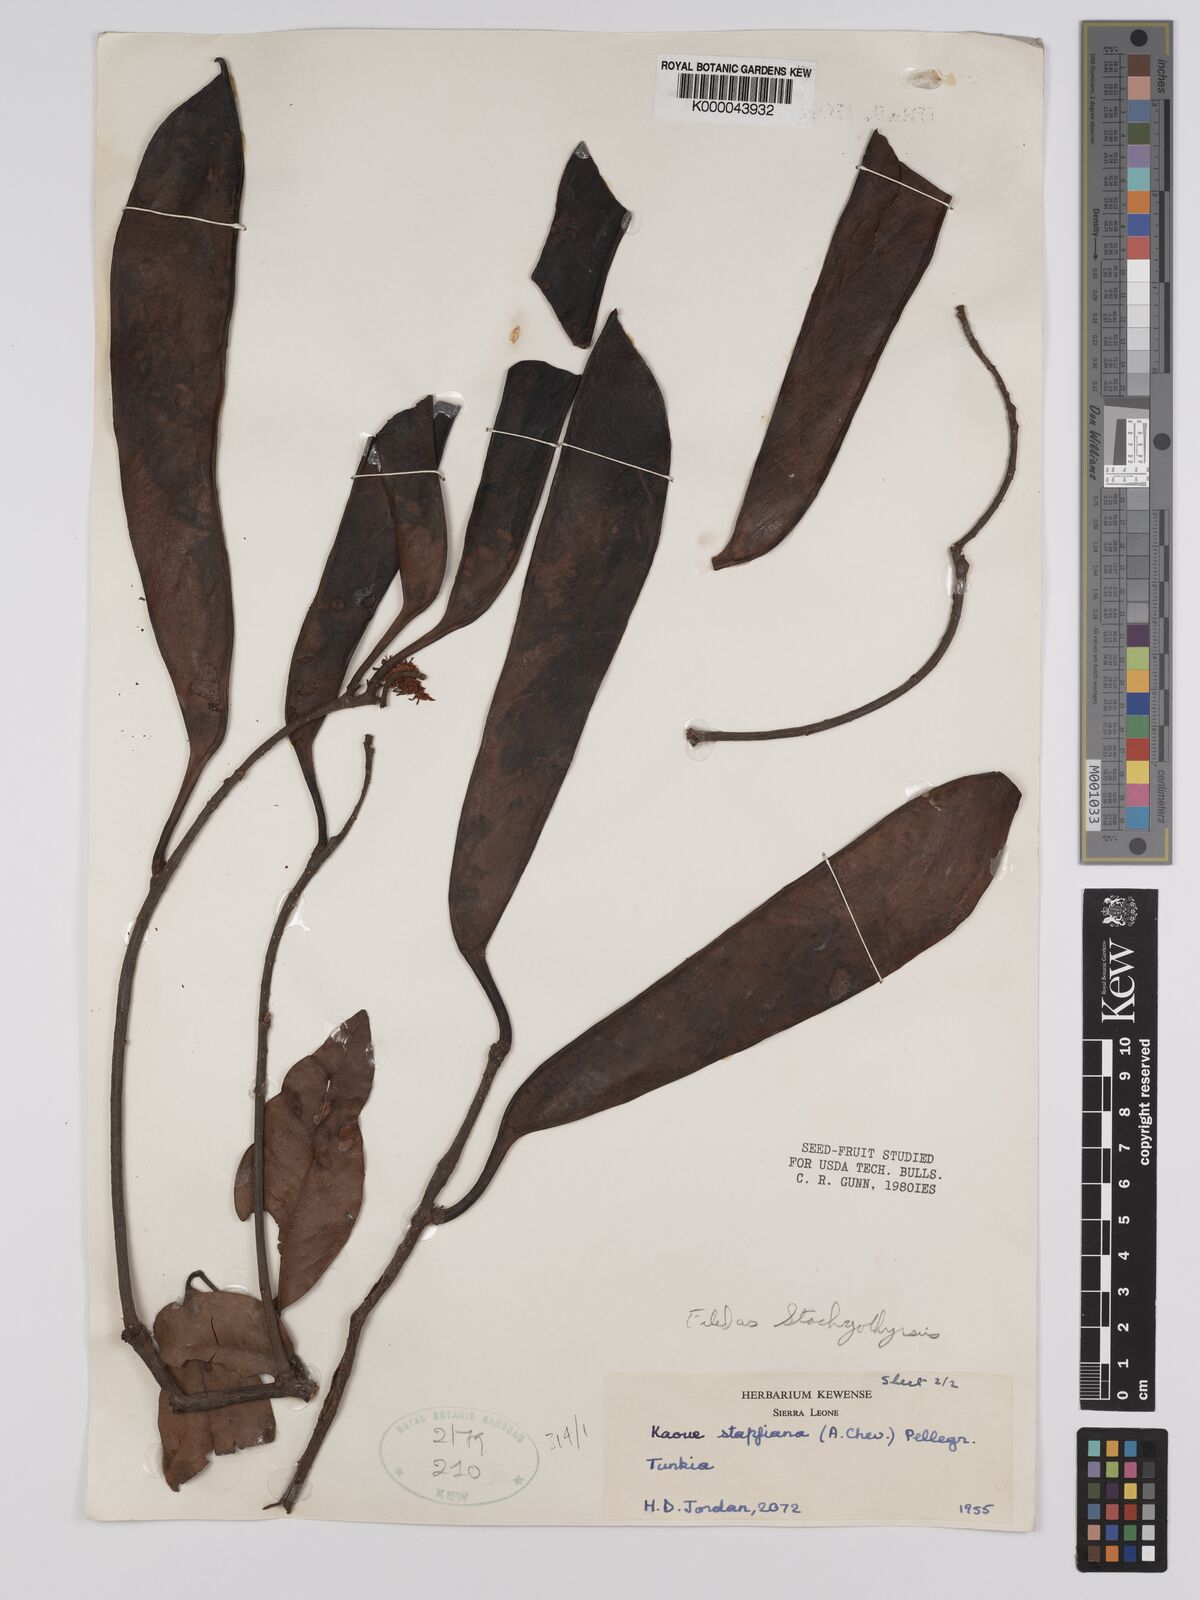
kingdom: Plantae
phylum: Tracheophyta
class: Magnoliopsida
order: Fabales
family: Fabaceae
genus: Stachyothyrsus
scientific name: Stachyothyrsus
